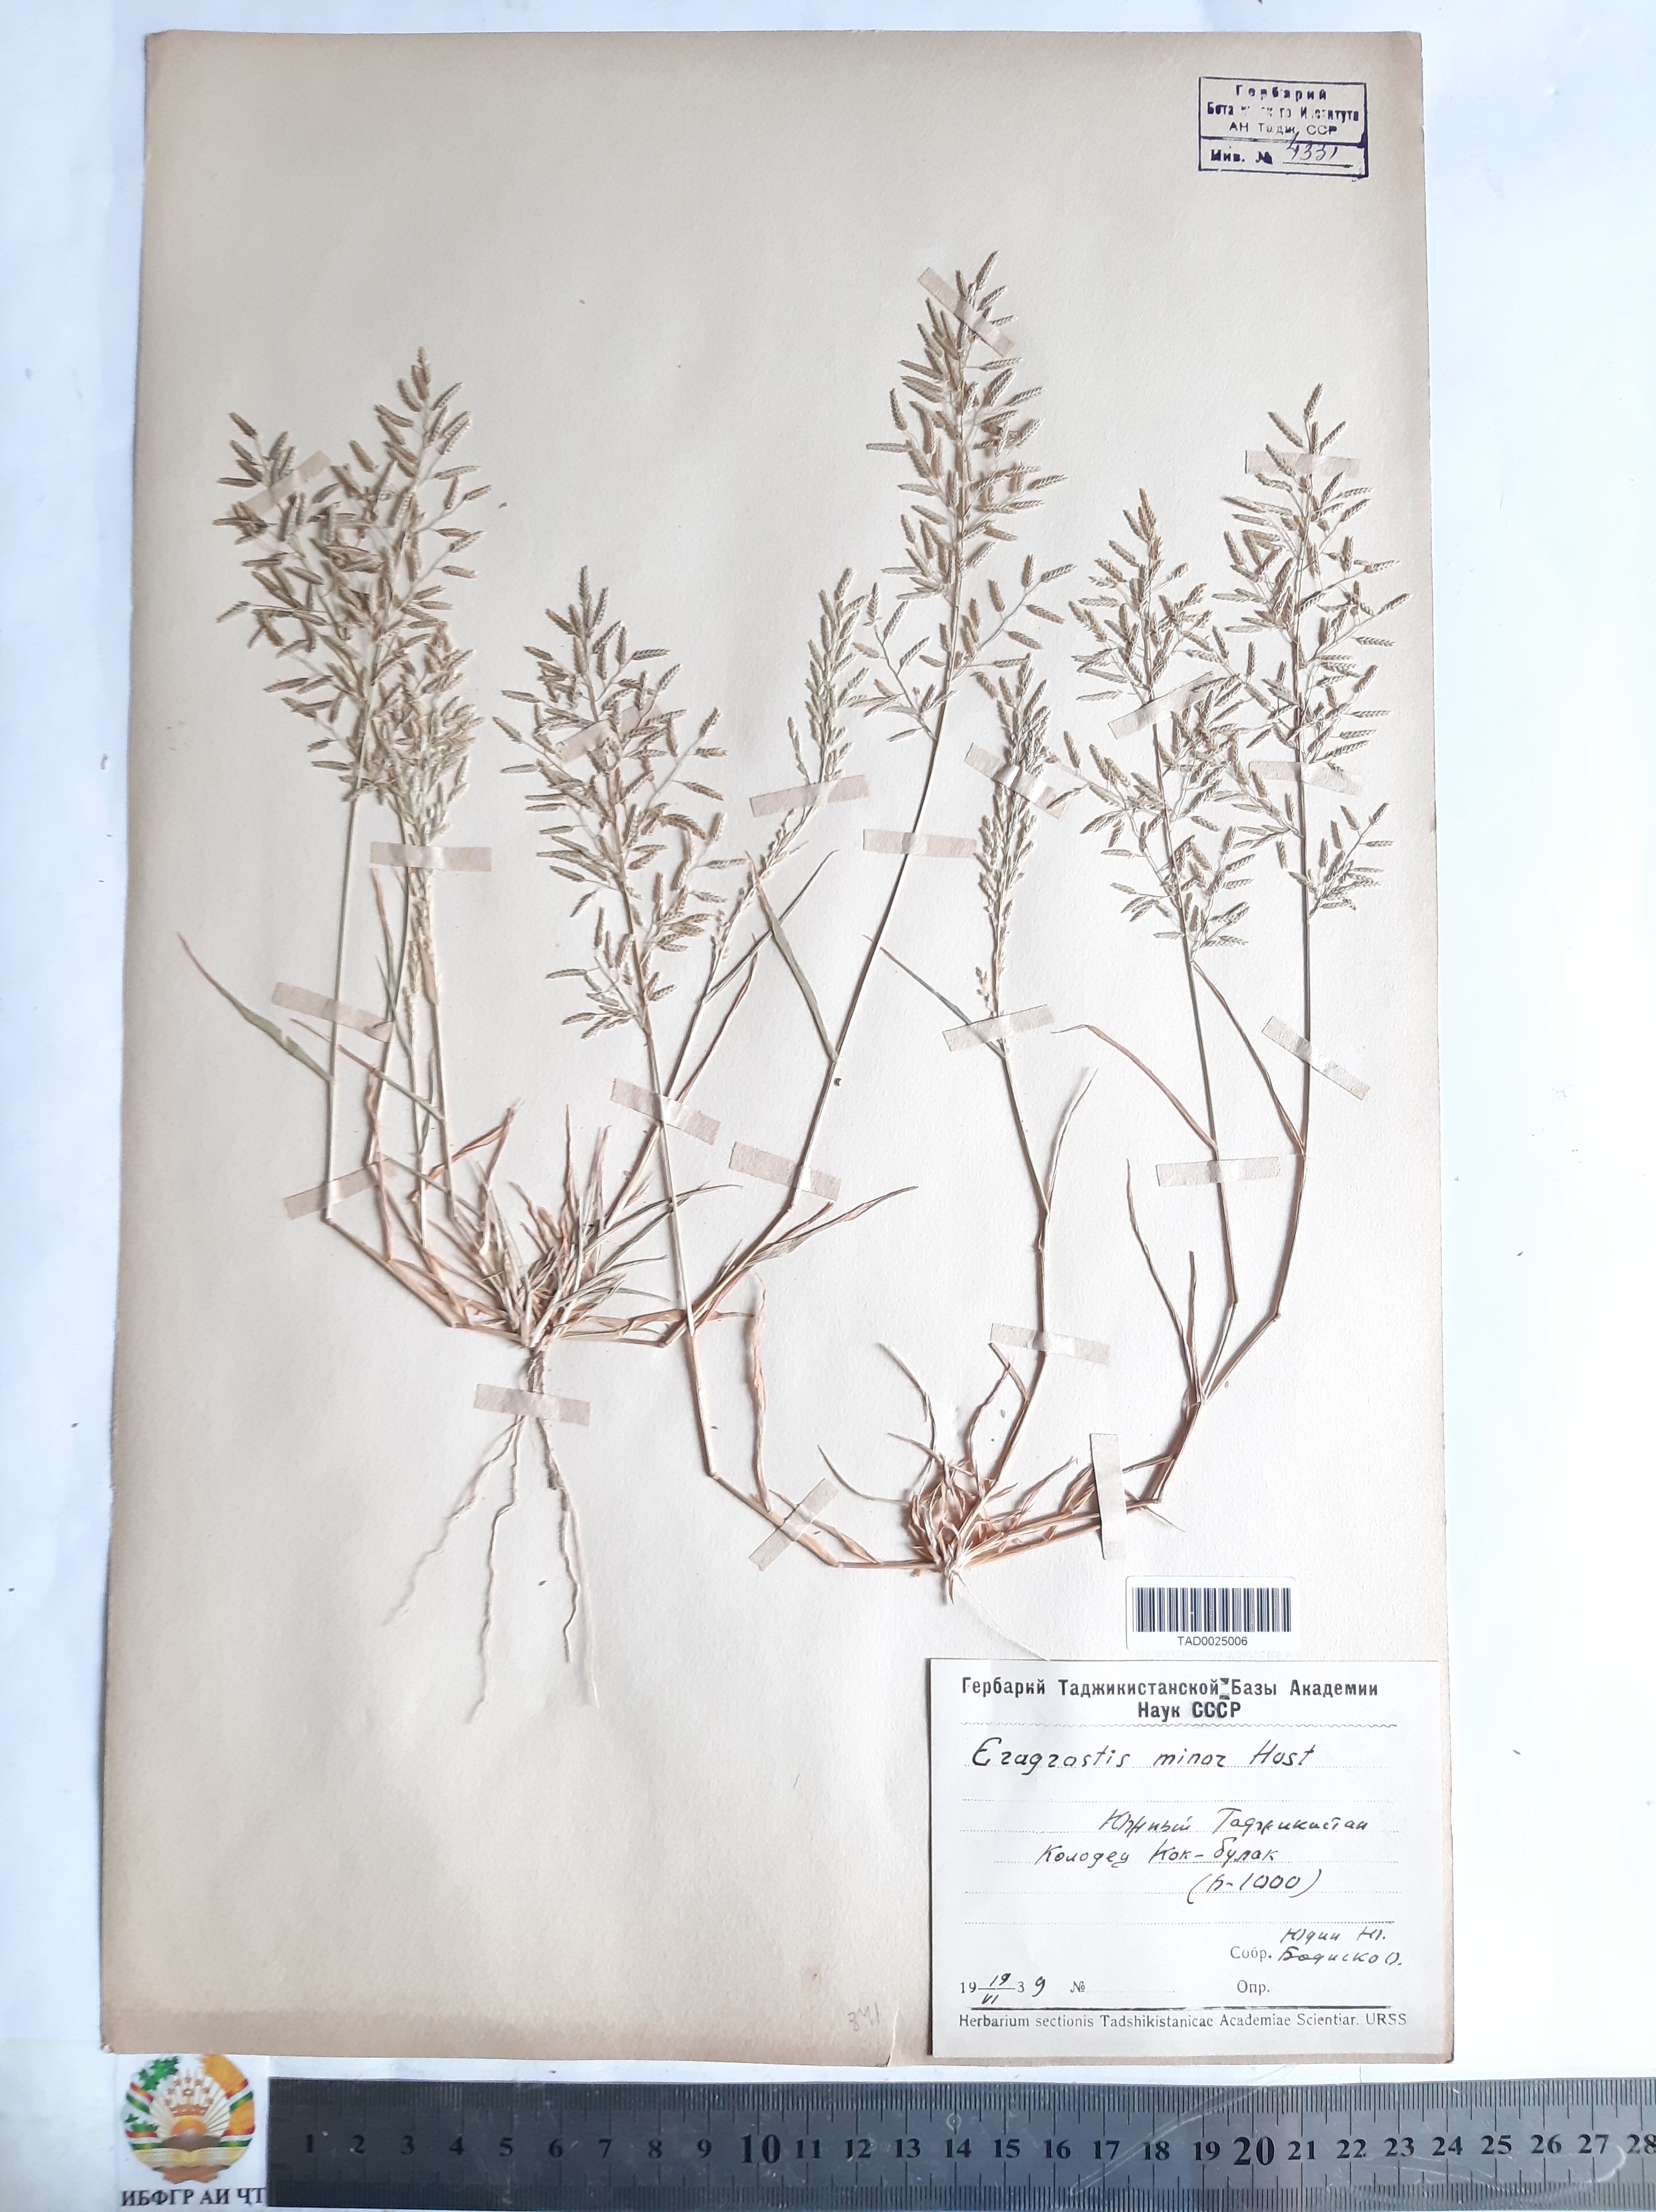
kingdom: Plantae
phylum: Tracheophyta
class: Liliopsida
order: Poales
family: Poaceae
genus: Eragrostis
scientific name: Eragrostis minor
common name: Small love-grass
